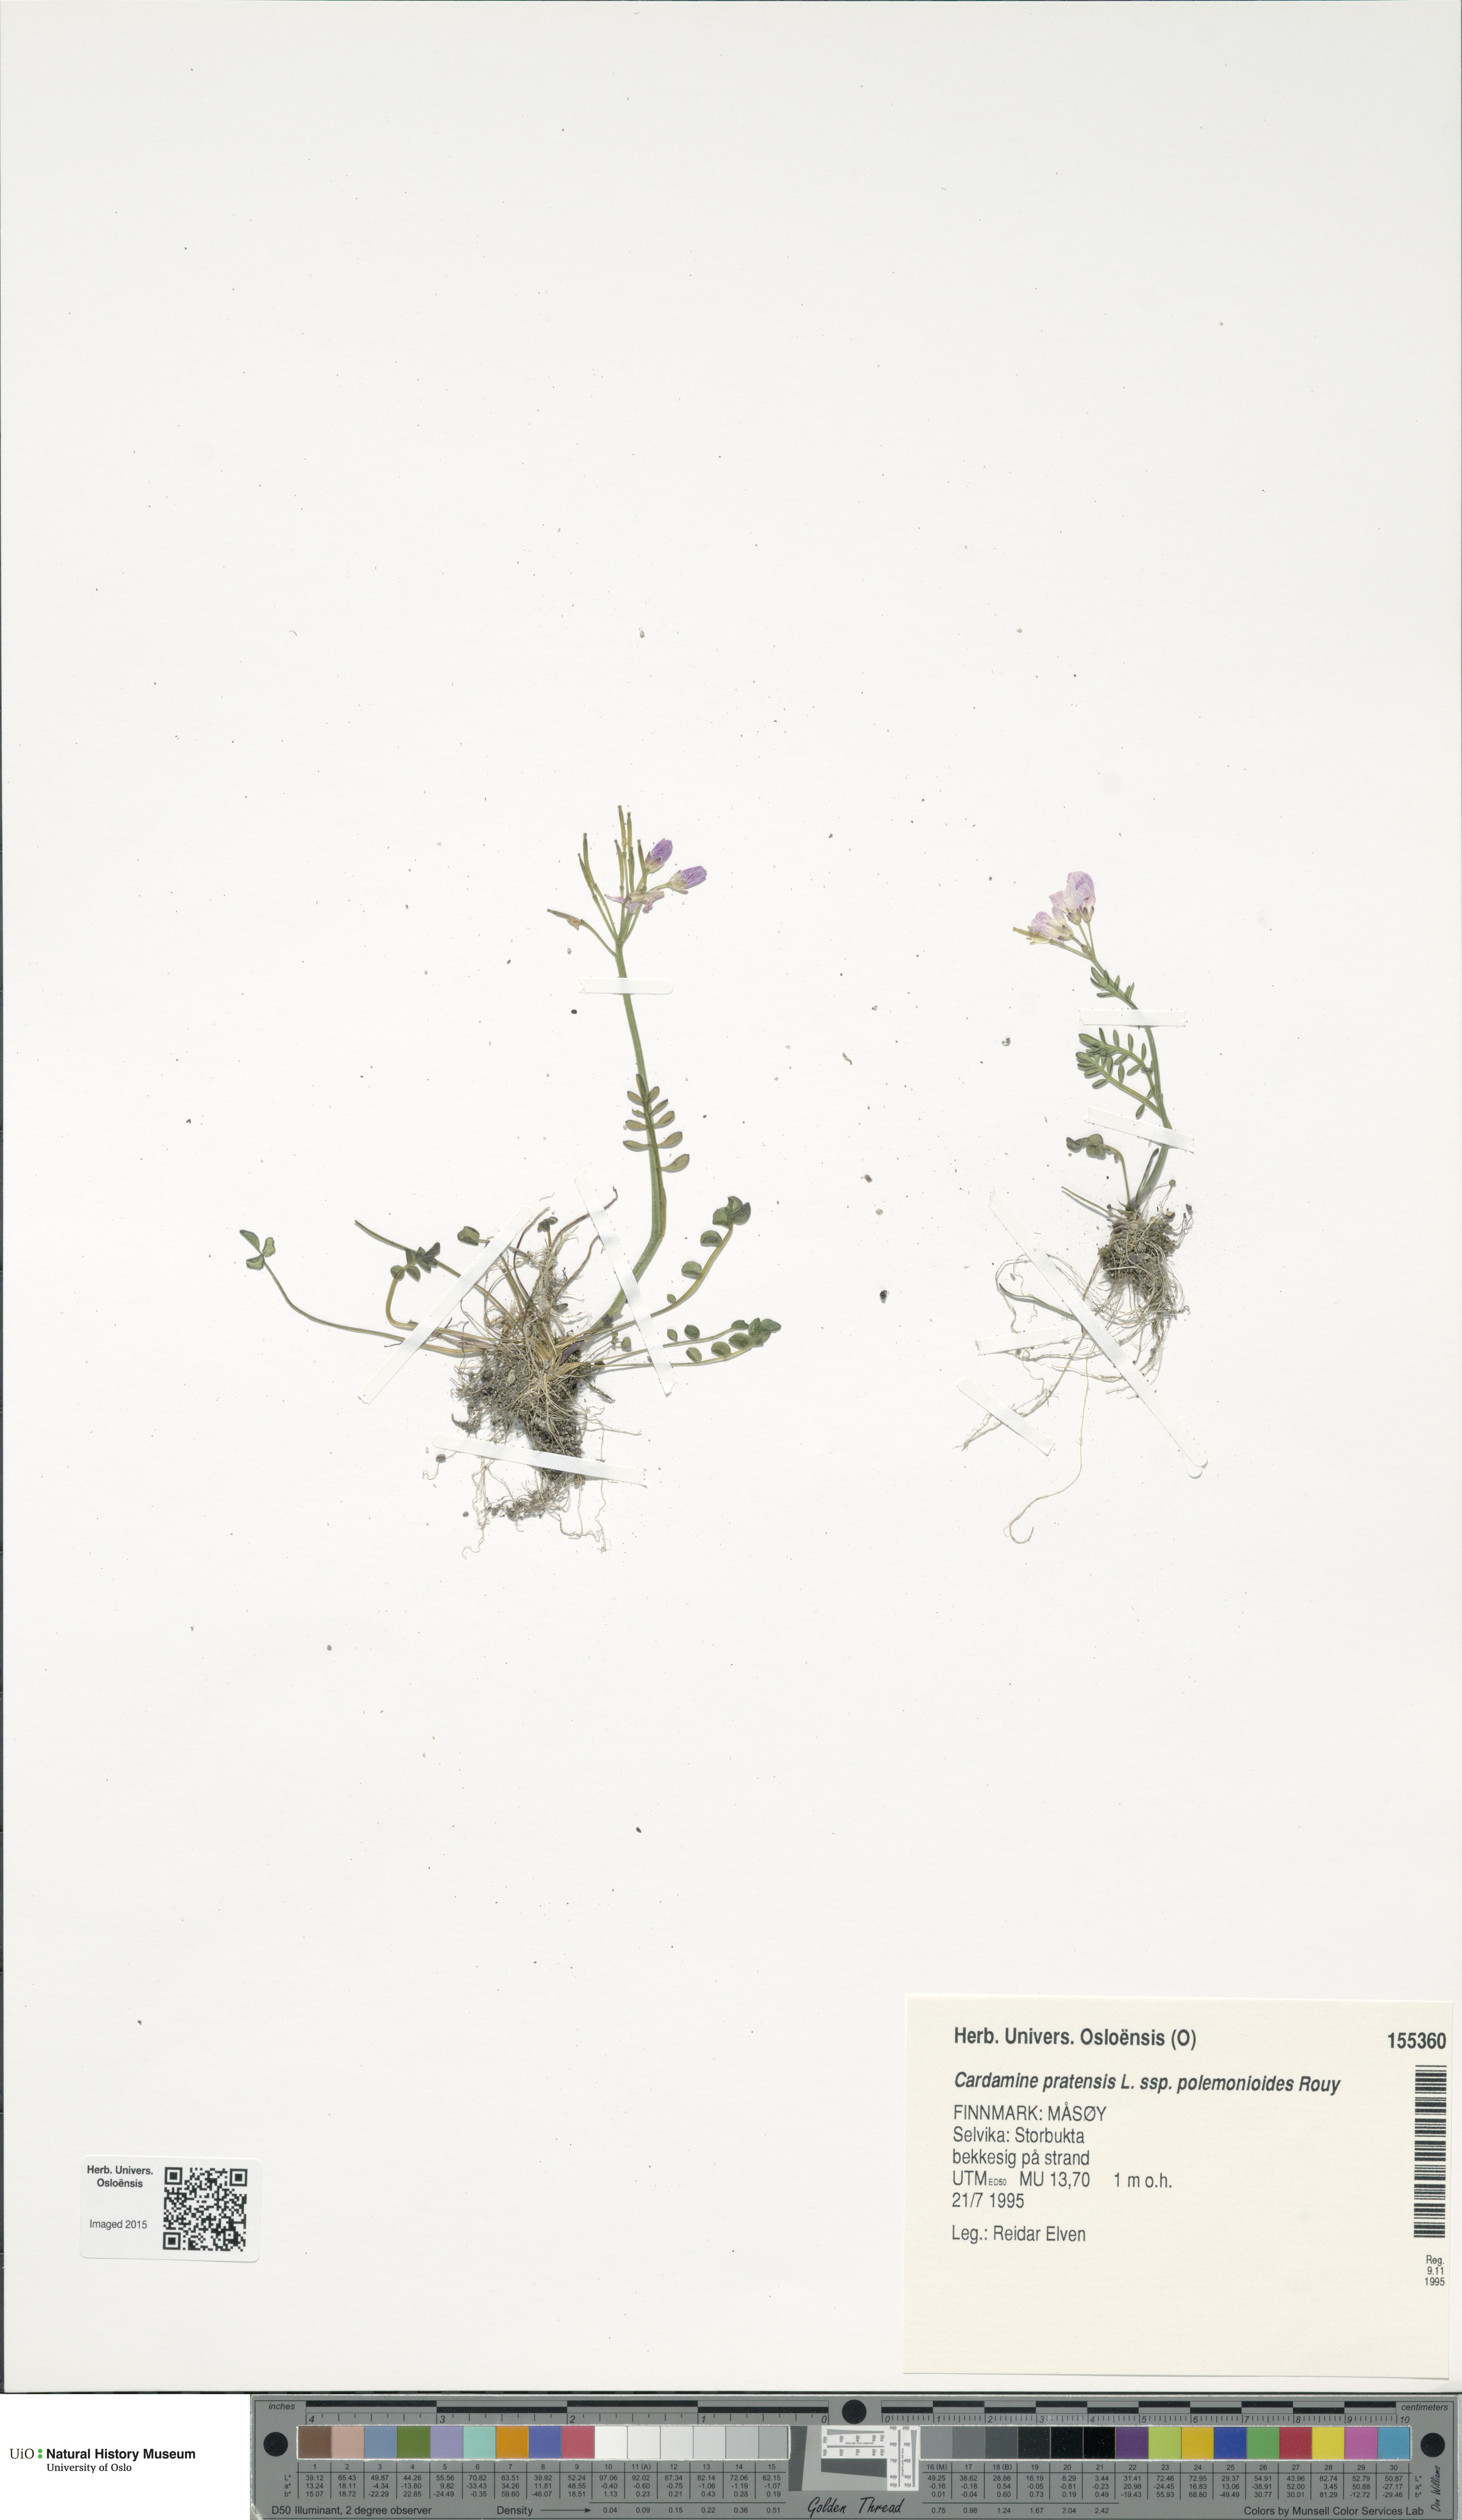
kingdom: Plantae
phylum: Tracheophyta
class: Magnoliopsida
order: Brassicales
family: Brassicaceae
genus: Cardamine
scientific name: Cardamine nymanii
